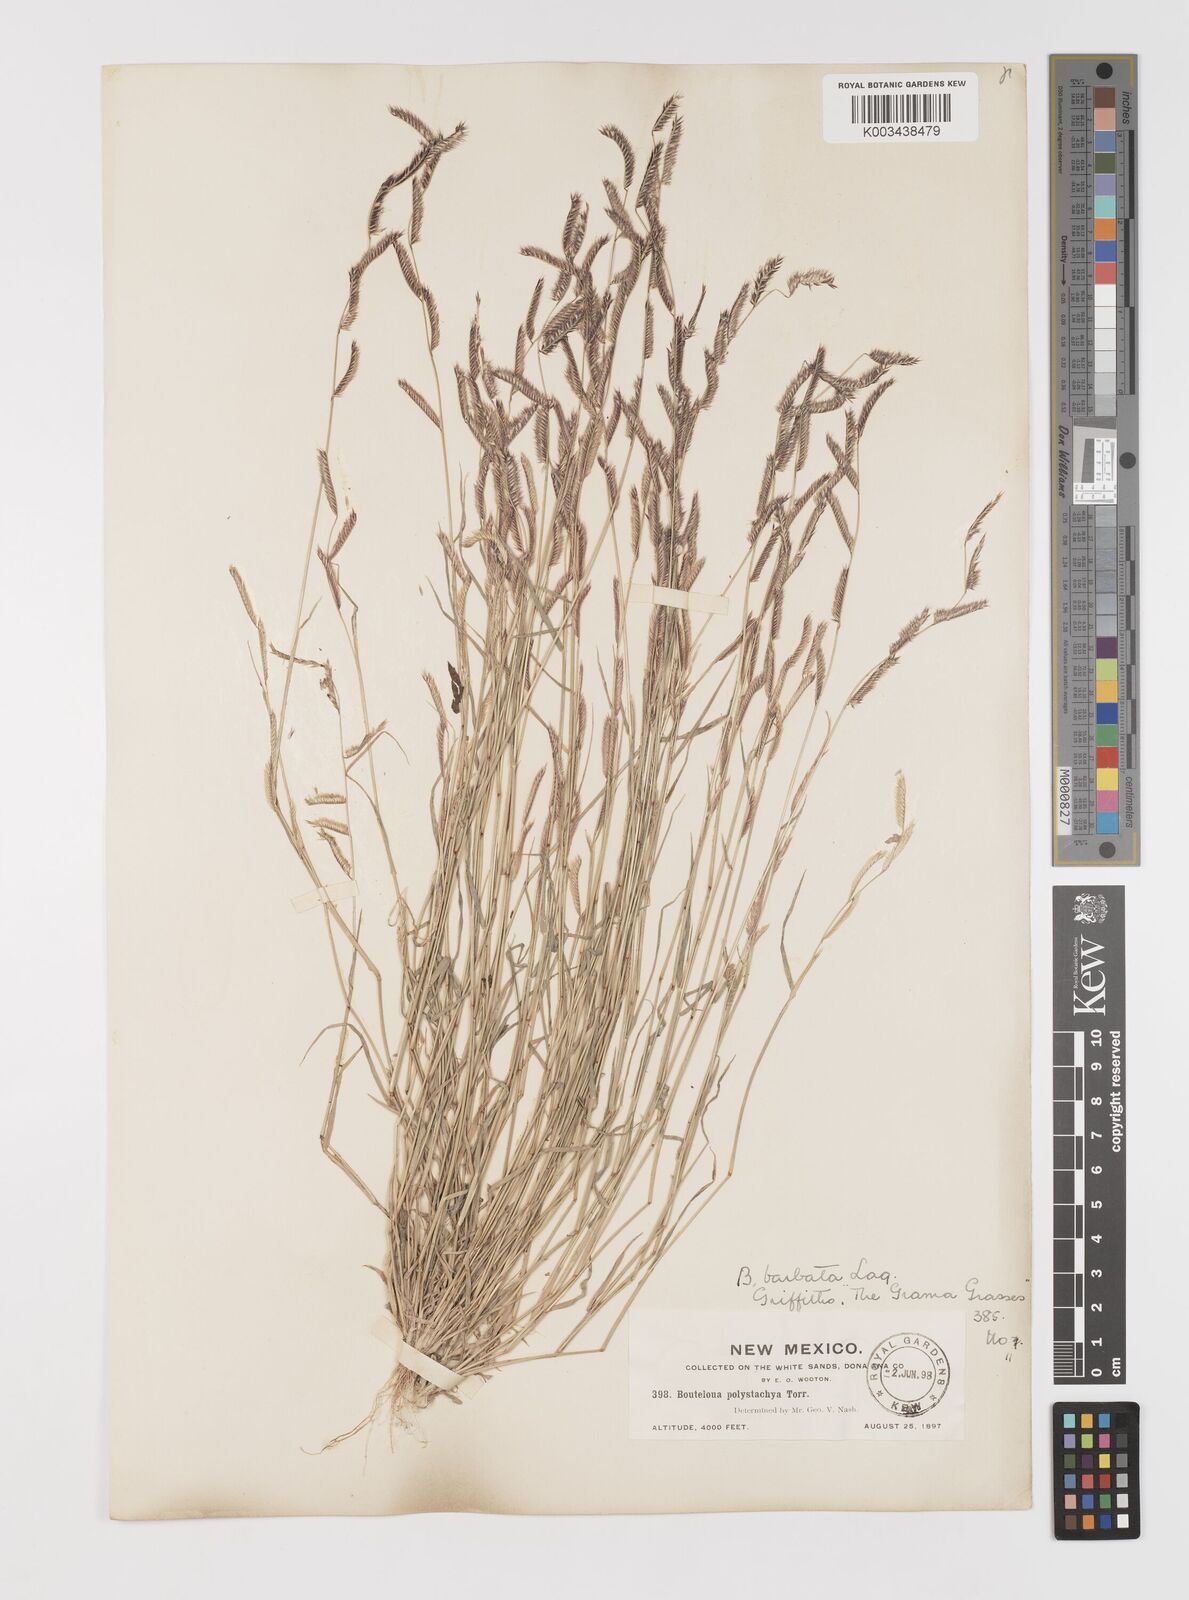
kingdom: Plantae
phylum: Tracheophyta
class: Liliopsida
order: Poales
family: Poaceae
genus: Bouteloua
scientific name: Bouteloua
